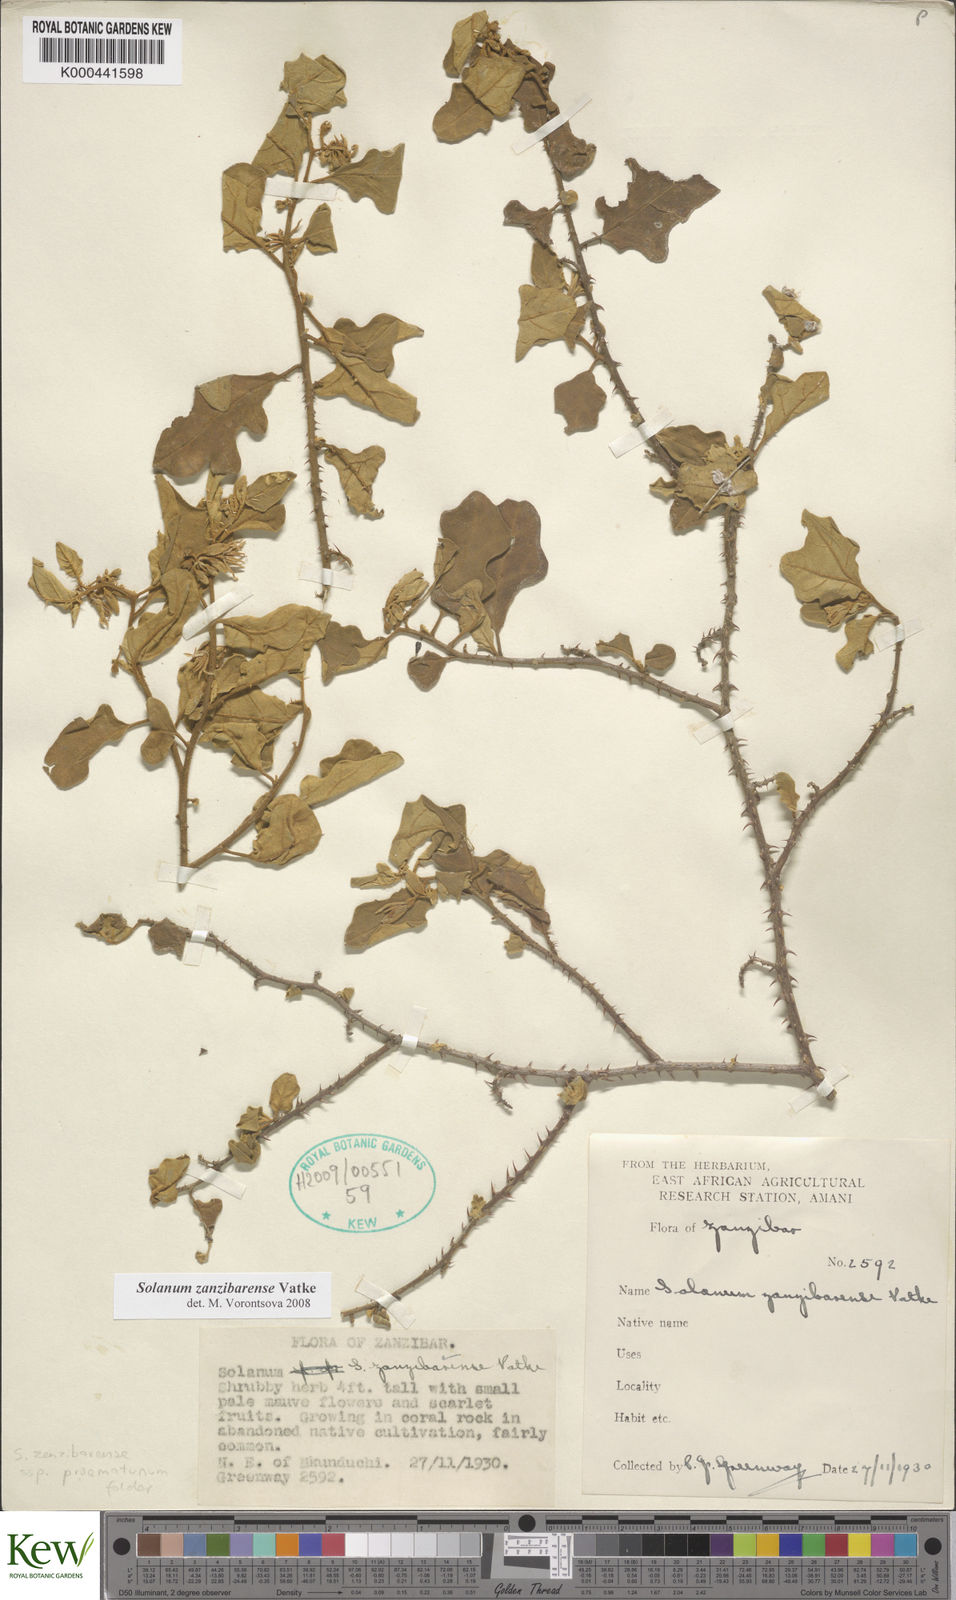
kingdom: Plantae
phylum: Tracheophyta
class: Magnoliopsida
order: Solanales
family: Solanaceae
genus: Solanum
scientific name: Solanum zanzibarense
